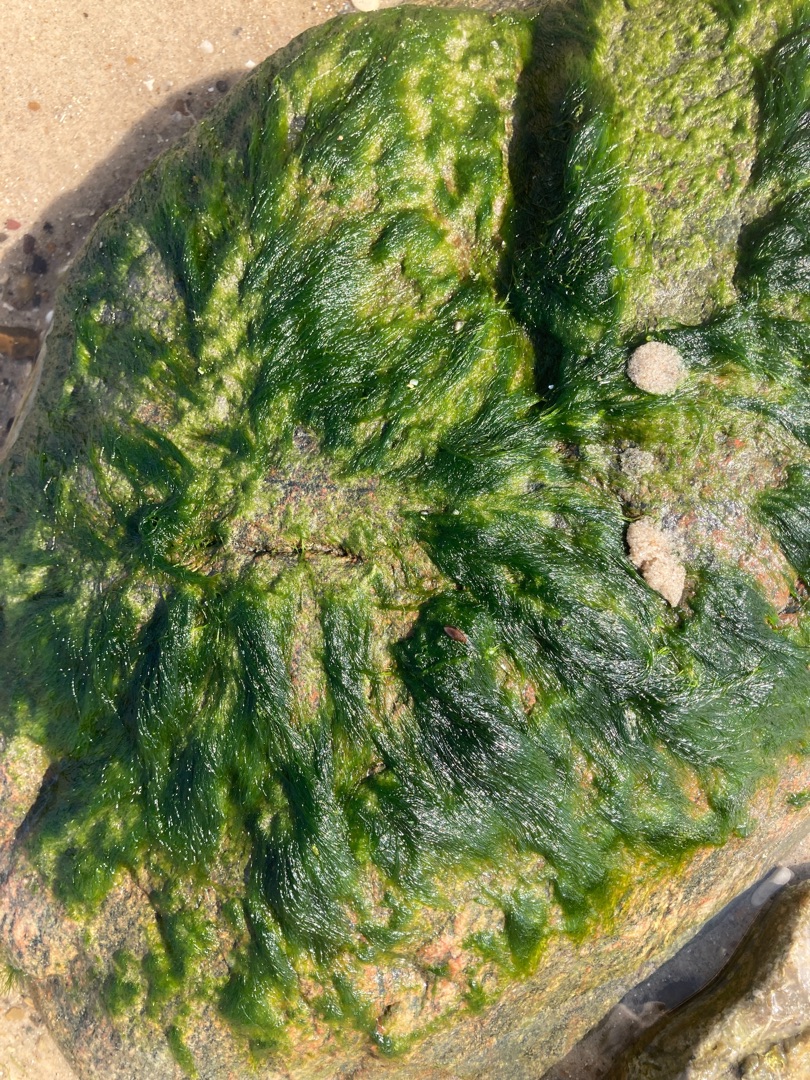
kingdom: Plantae
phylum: Chlorophyta
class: Ulvophyceae
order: Ulvales
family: Ulvaceae
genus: Ulva
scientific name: Ulva
